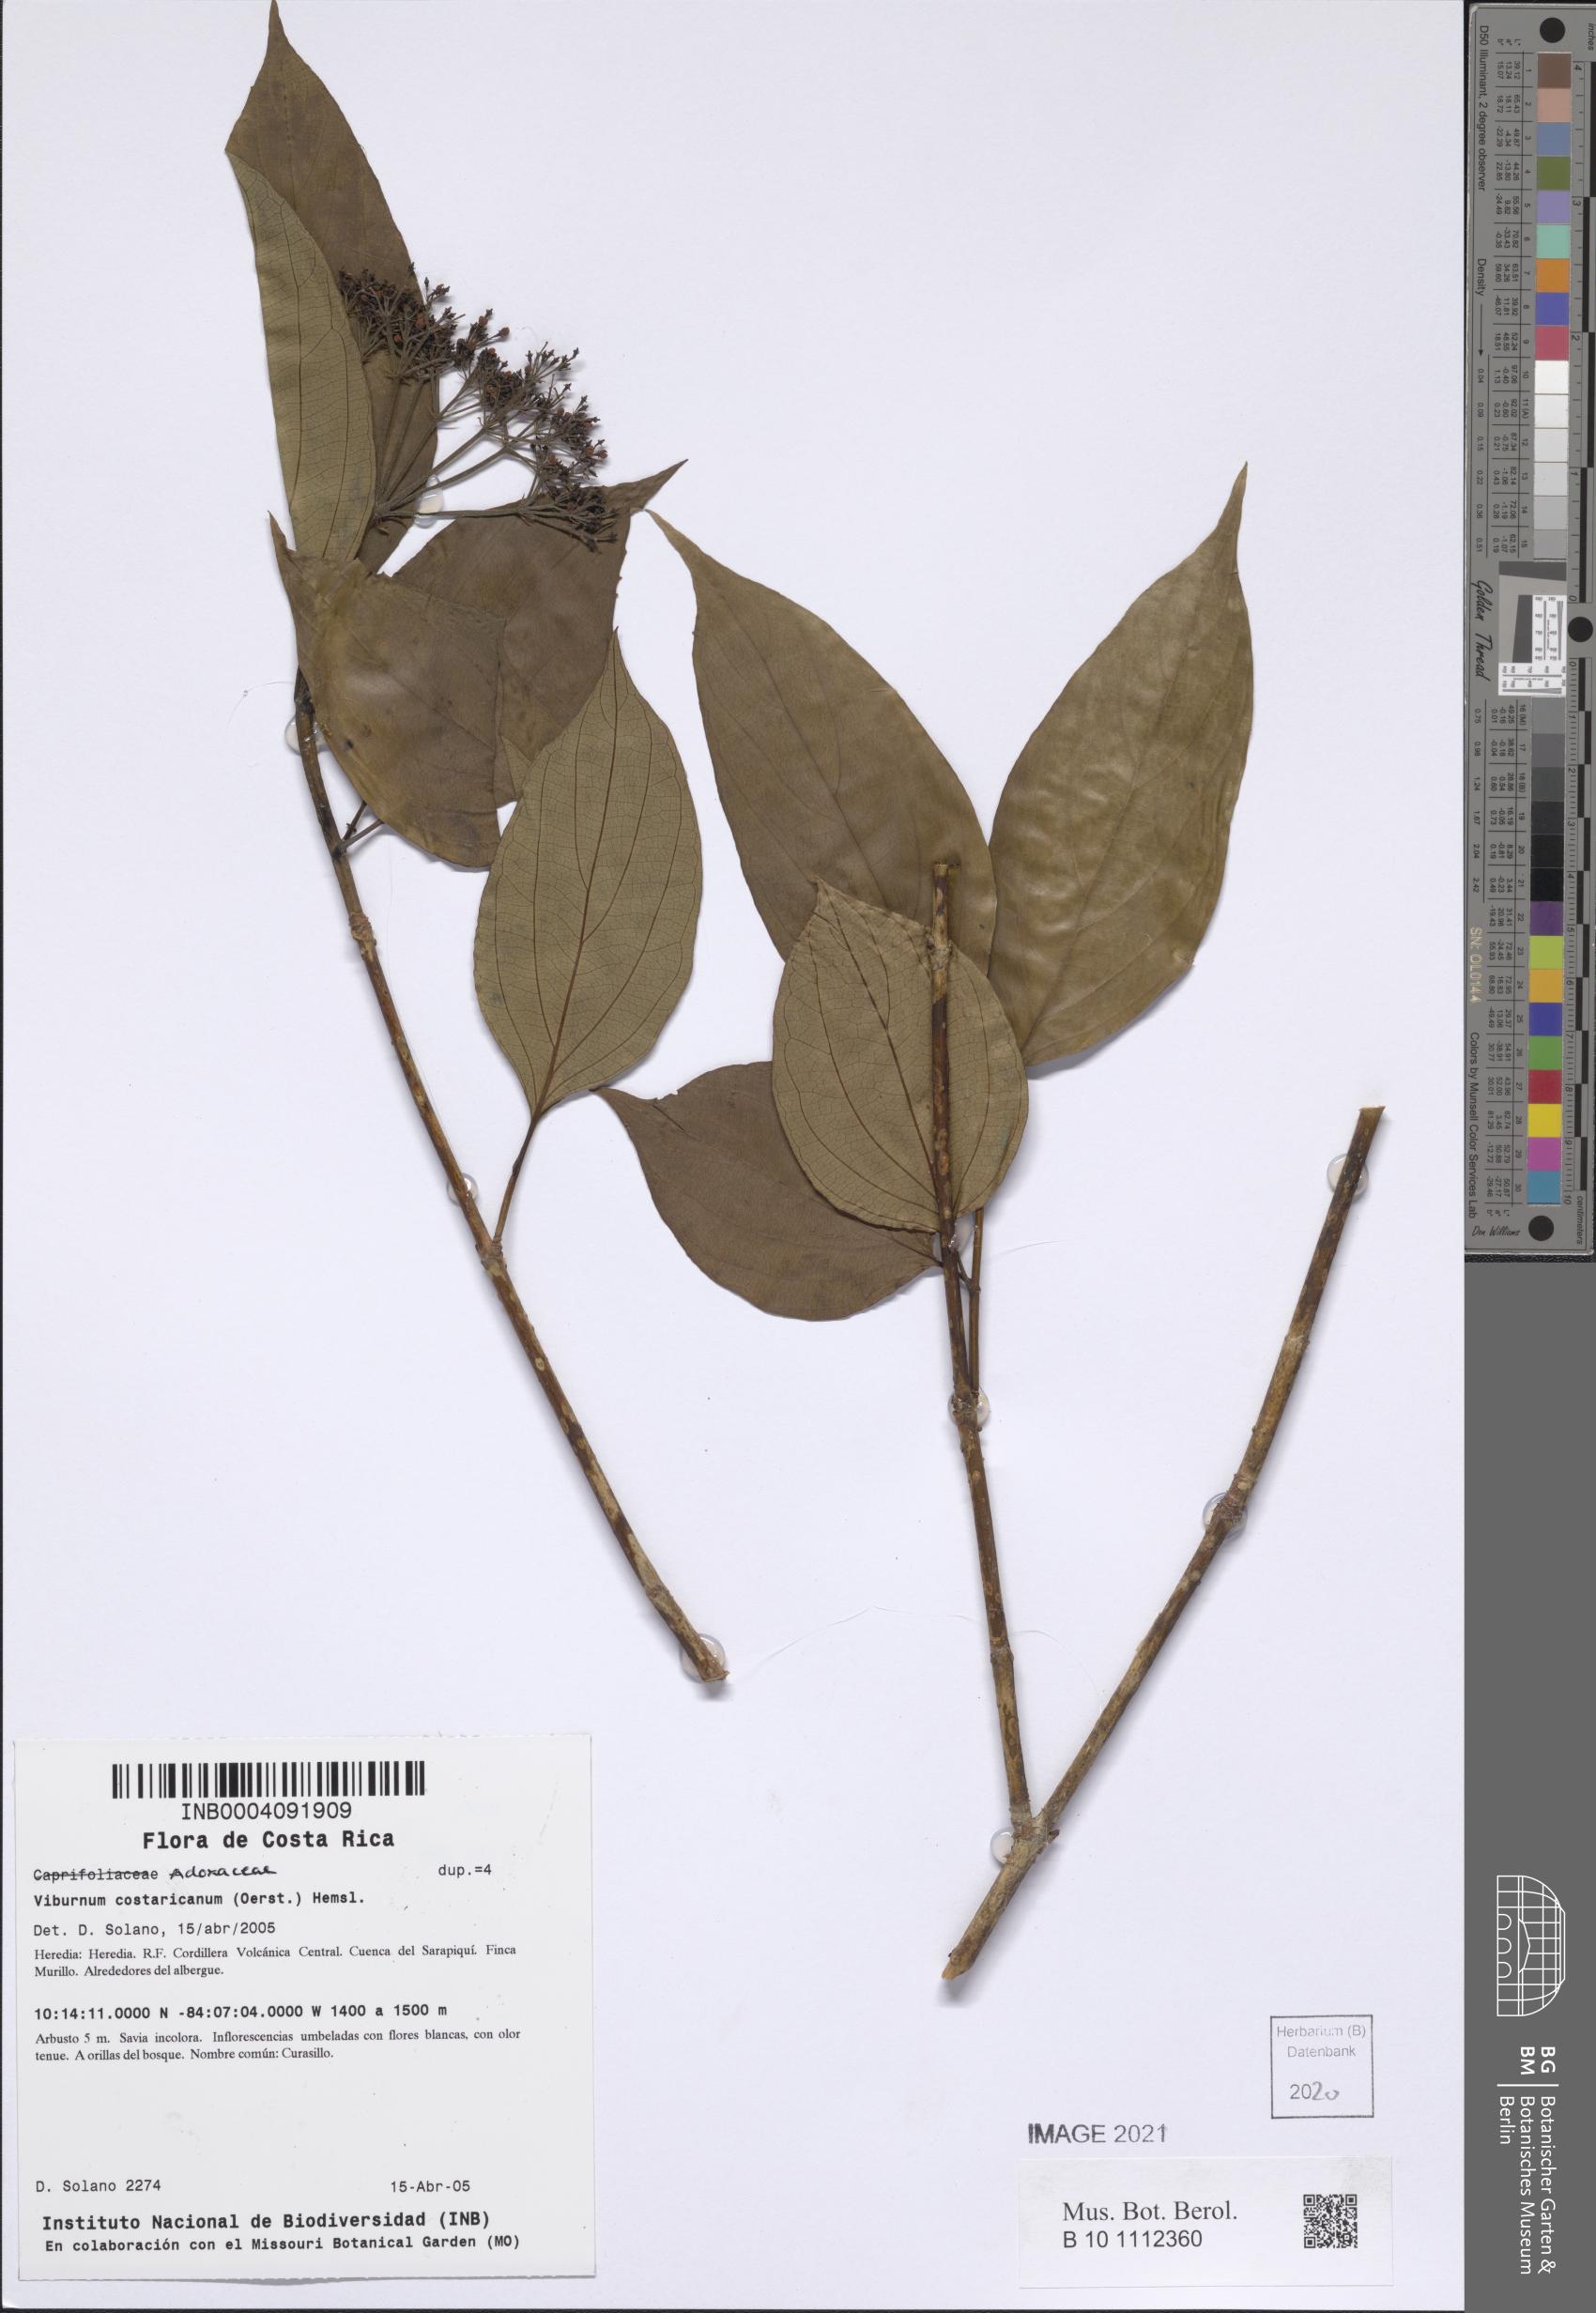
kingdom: Plantae
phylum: Tracheophyta
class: Magnoliopsida
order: Dipsacales
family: Viburnaceae
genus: Viburnum
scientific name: Viburnum costaricanum
